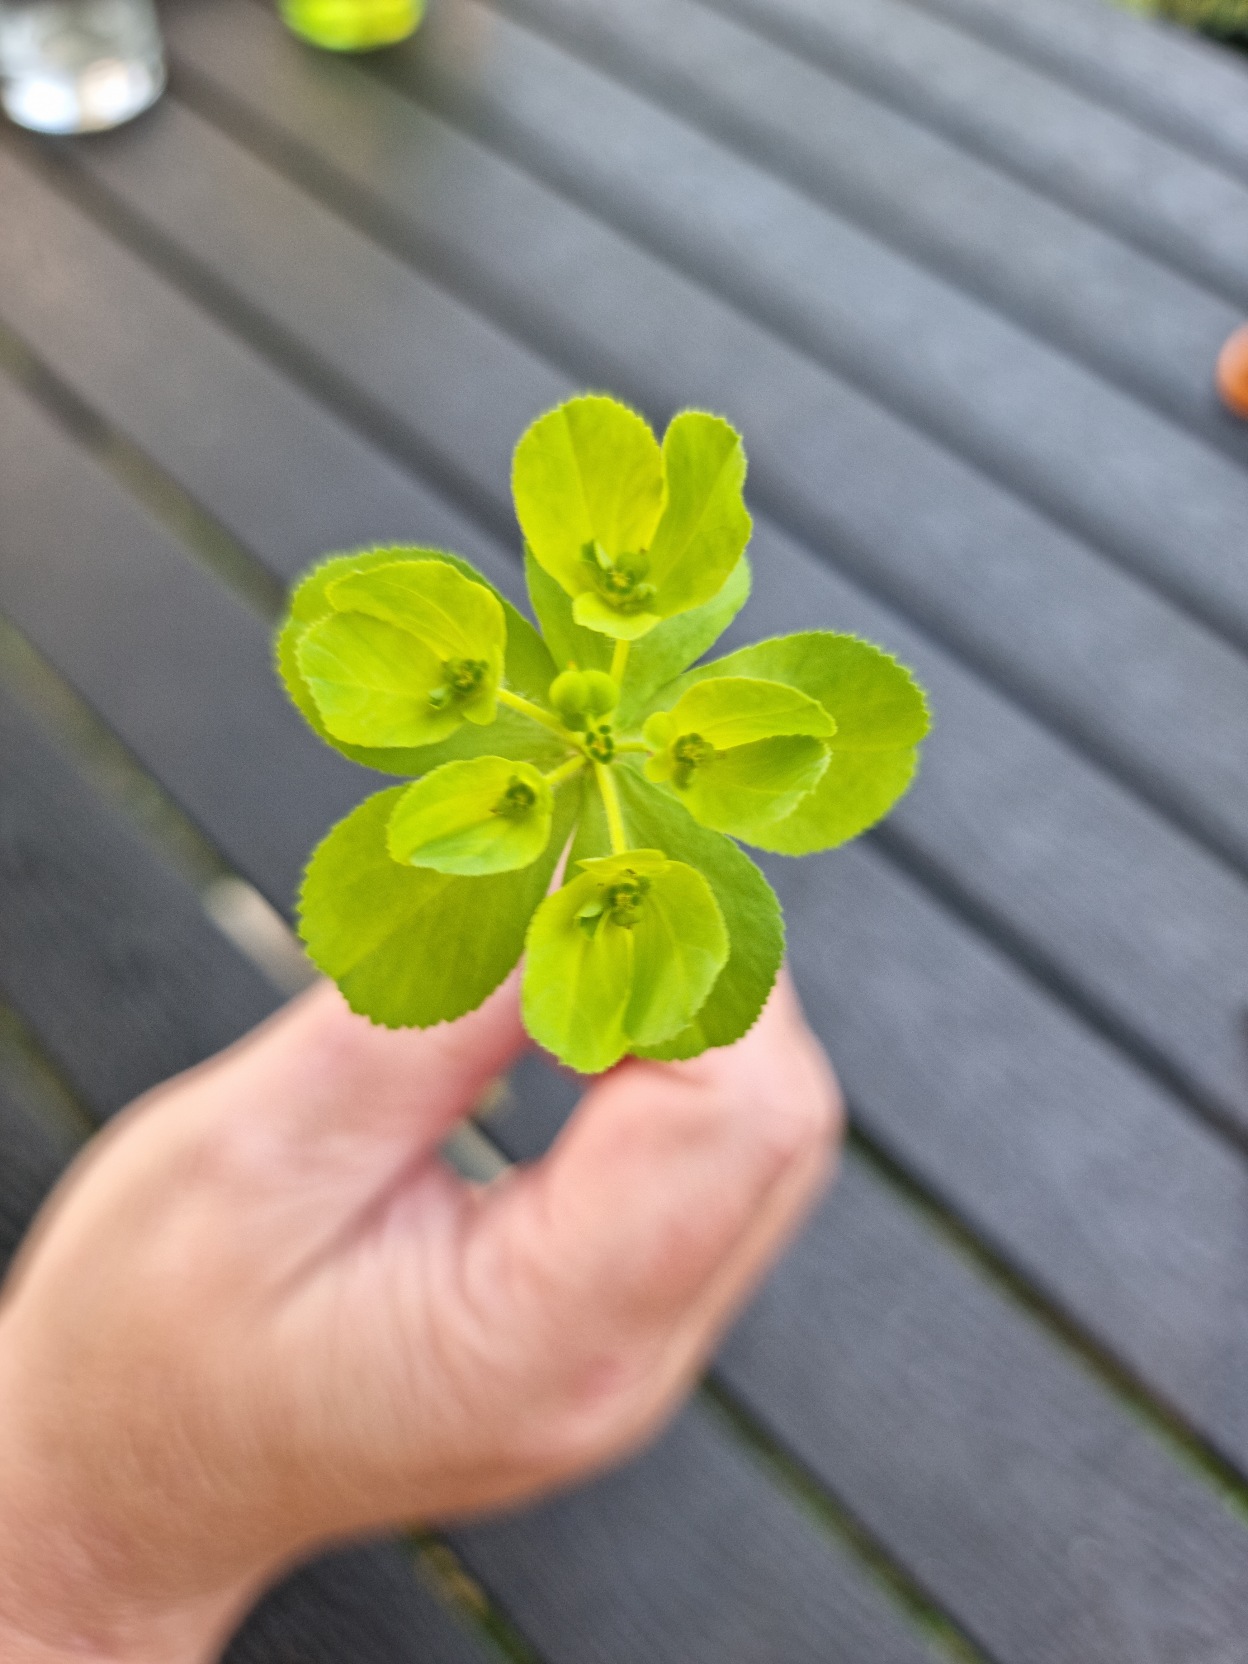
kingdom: Plantae
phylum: Tracheophyta
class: Magnoliopsida
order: Malpighiales
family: Euphorbiaceae
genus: Euphorbia
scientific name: Euphorbia helioscopia
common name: Skærm-vortemælk
